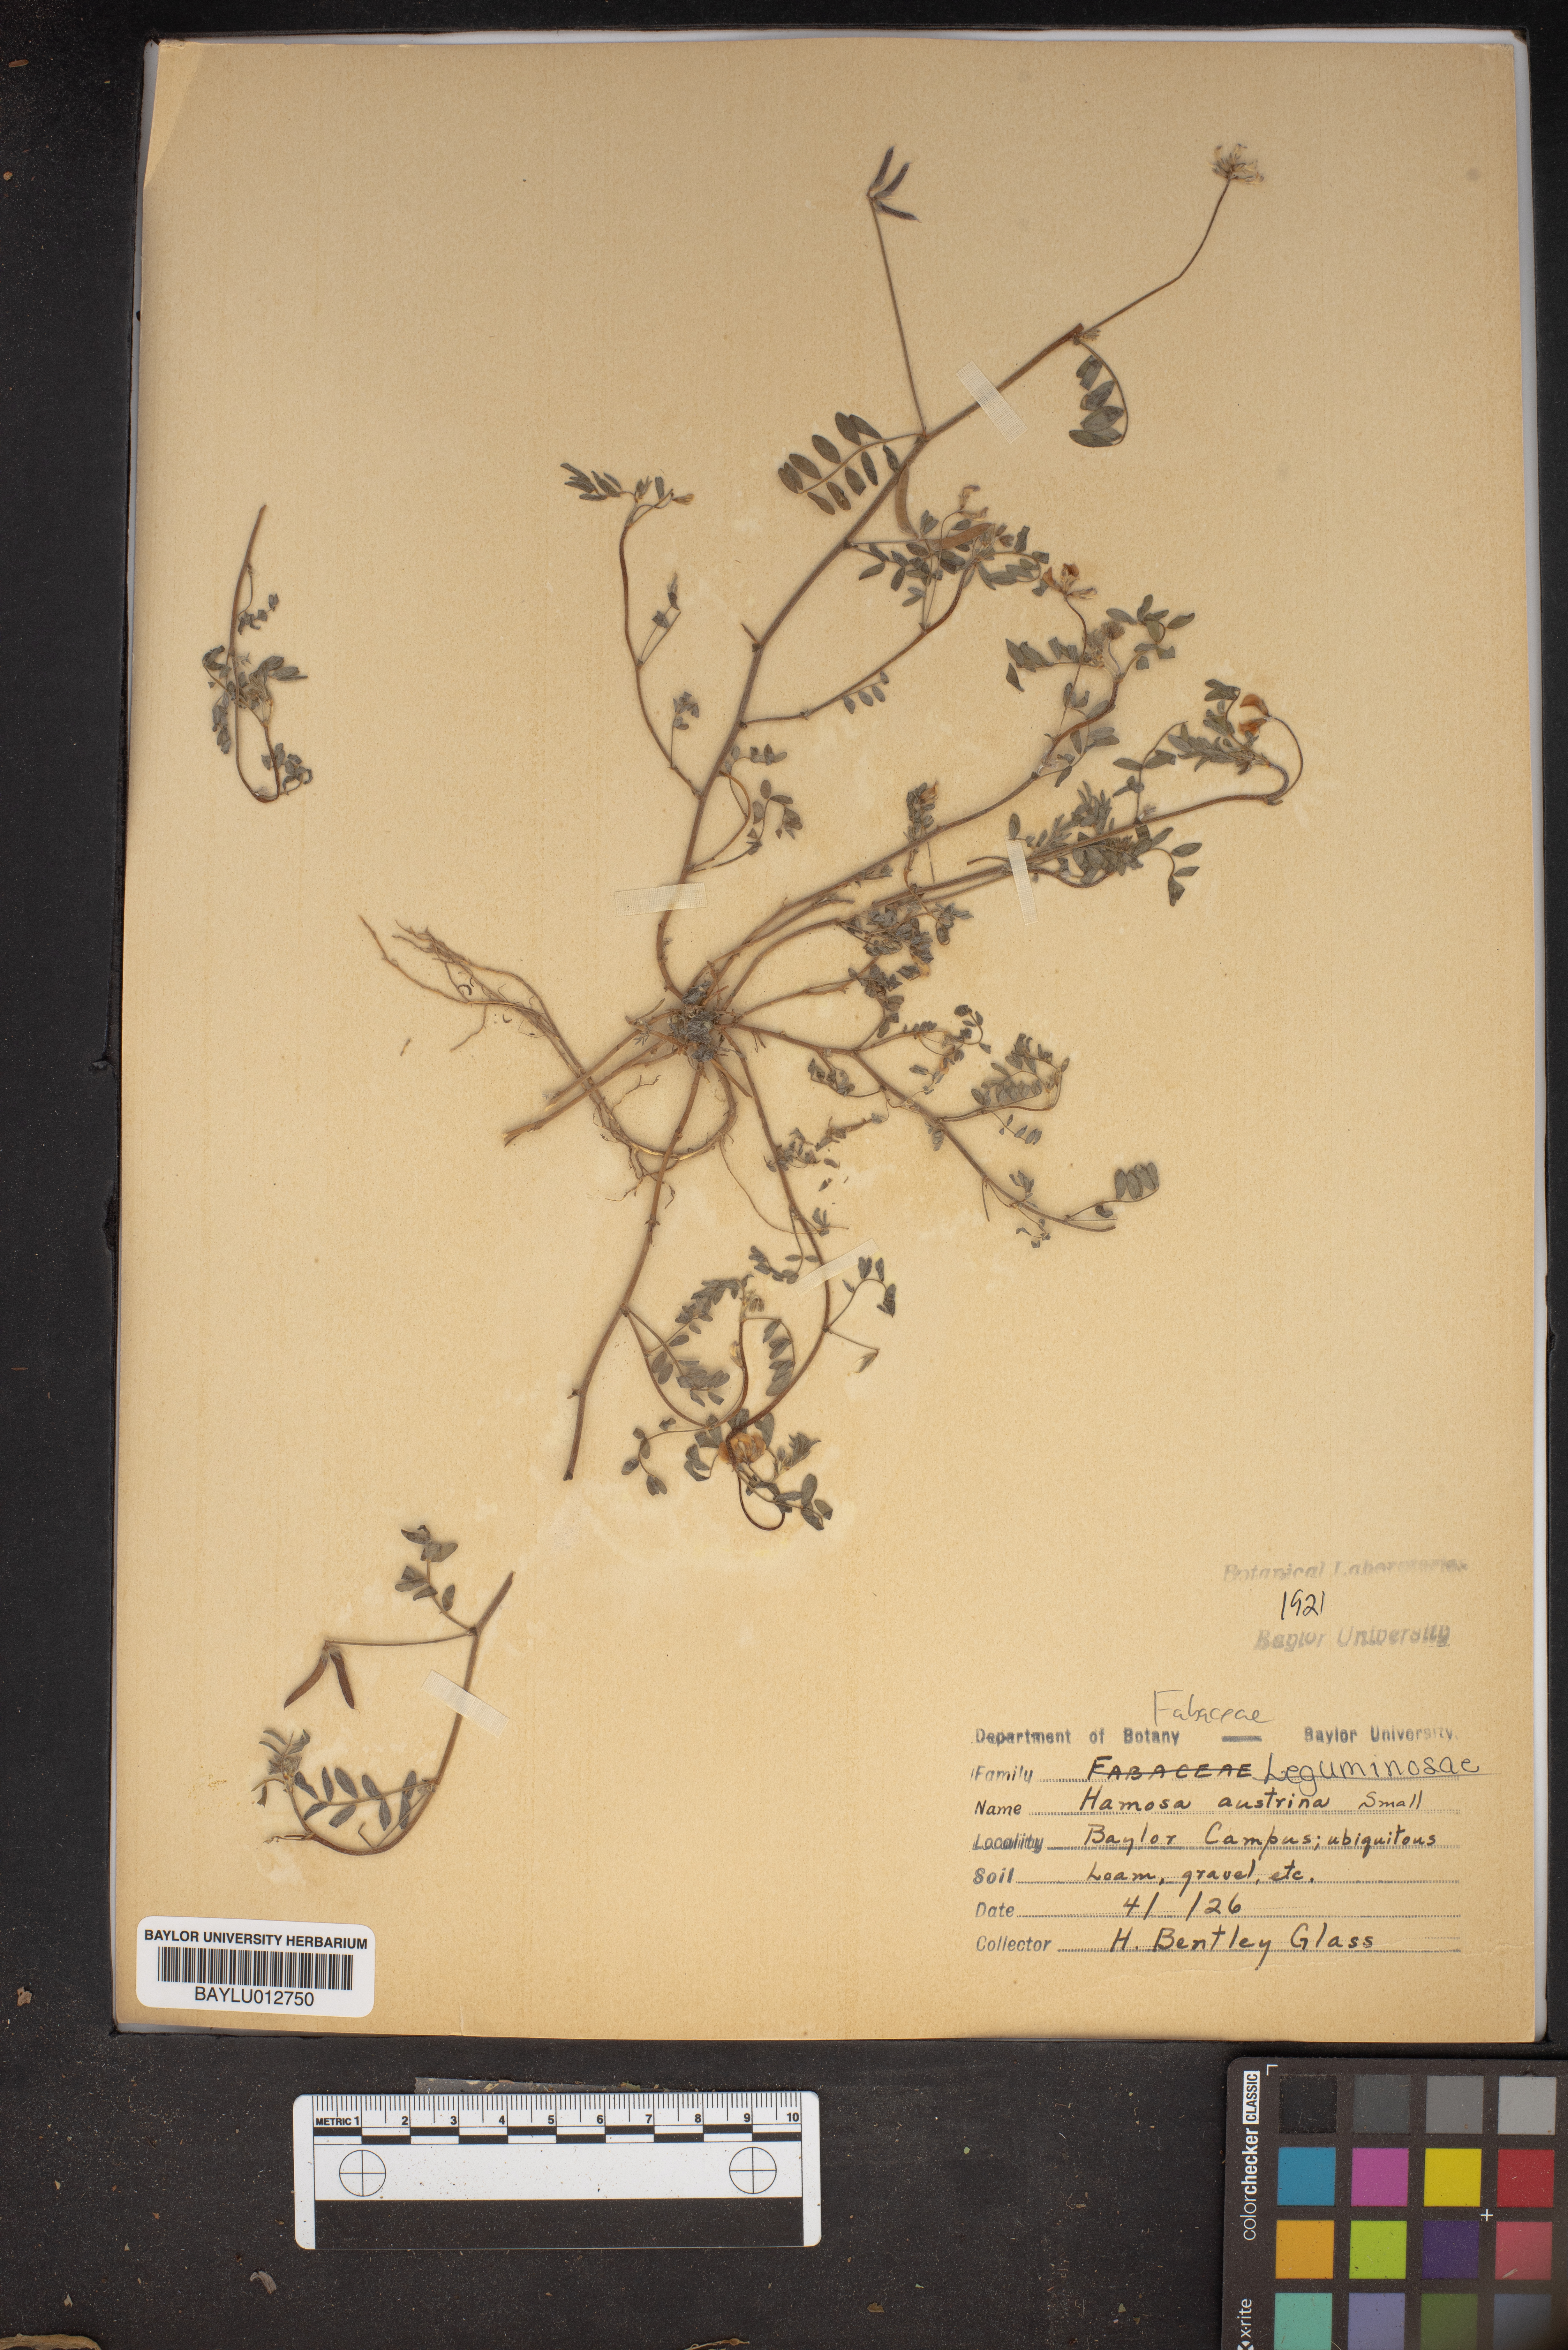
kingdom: Plantae
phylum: Tracheophyta
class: Magnoliopsida
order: Fabales
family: Fabaceae
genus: Astragalus
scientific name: Astragalus nuttallianus
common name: Smallflowered milkvetch
